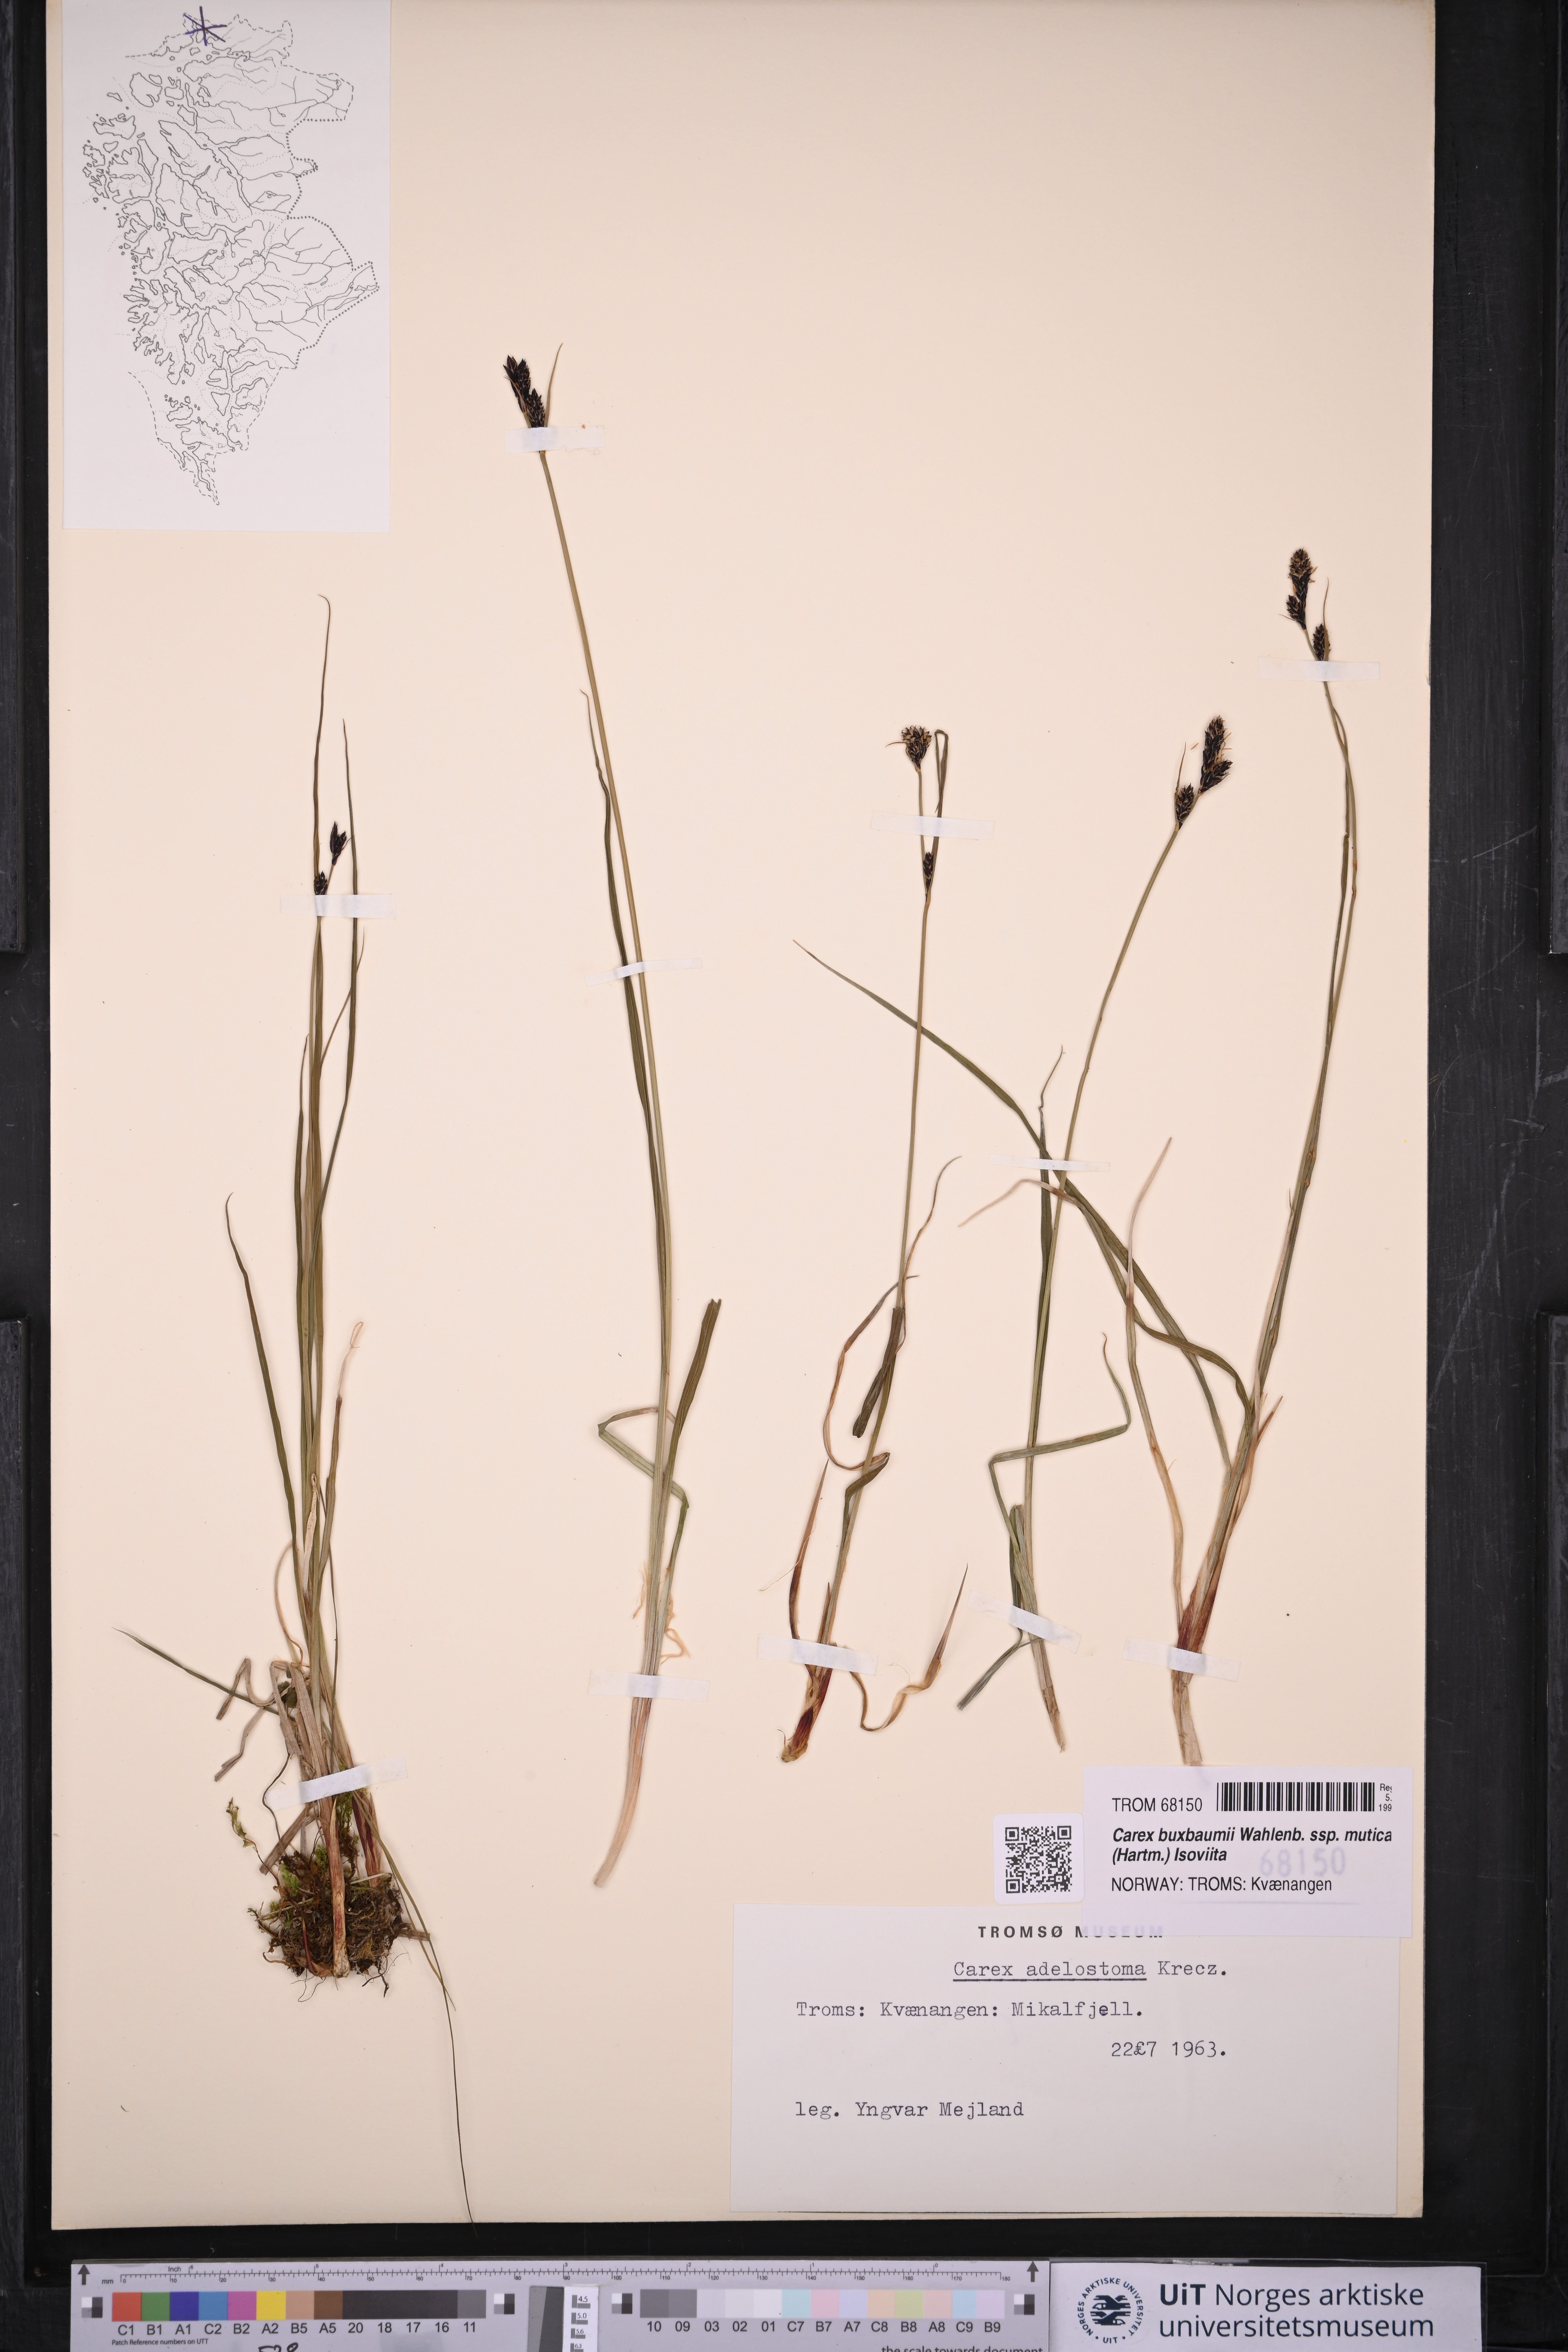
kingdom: Plantae
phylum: Tracheophyta
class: Liliopsida
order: Poales
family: Cyperaceae
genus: Carex
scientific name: Carex adelostoma
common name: Circumpolar sedge
